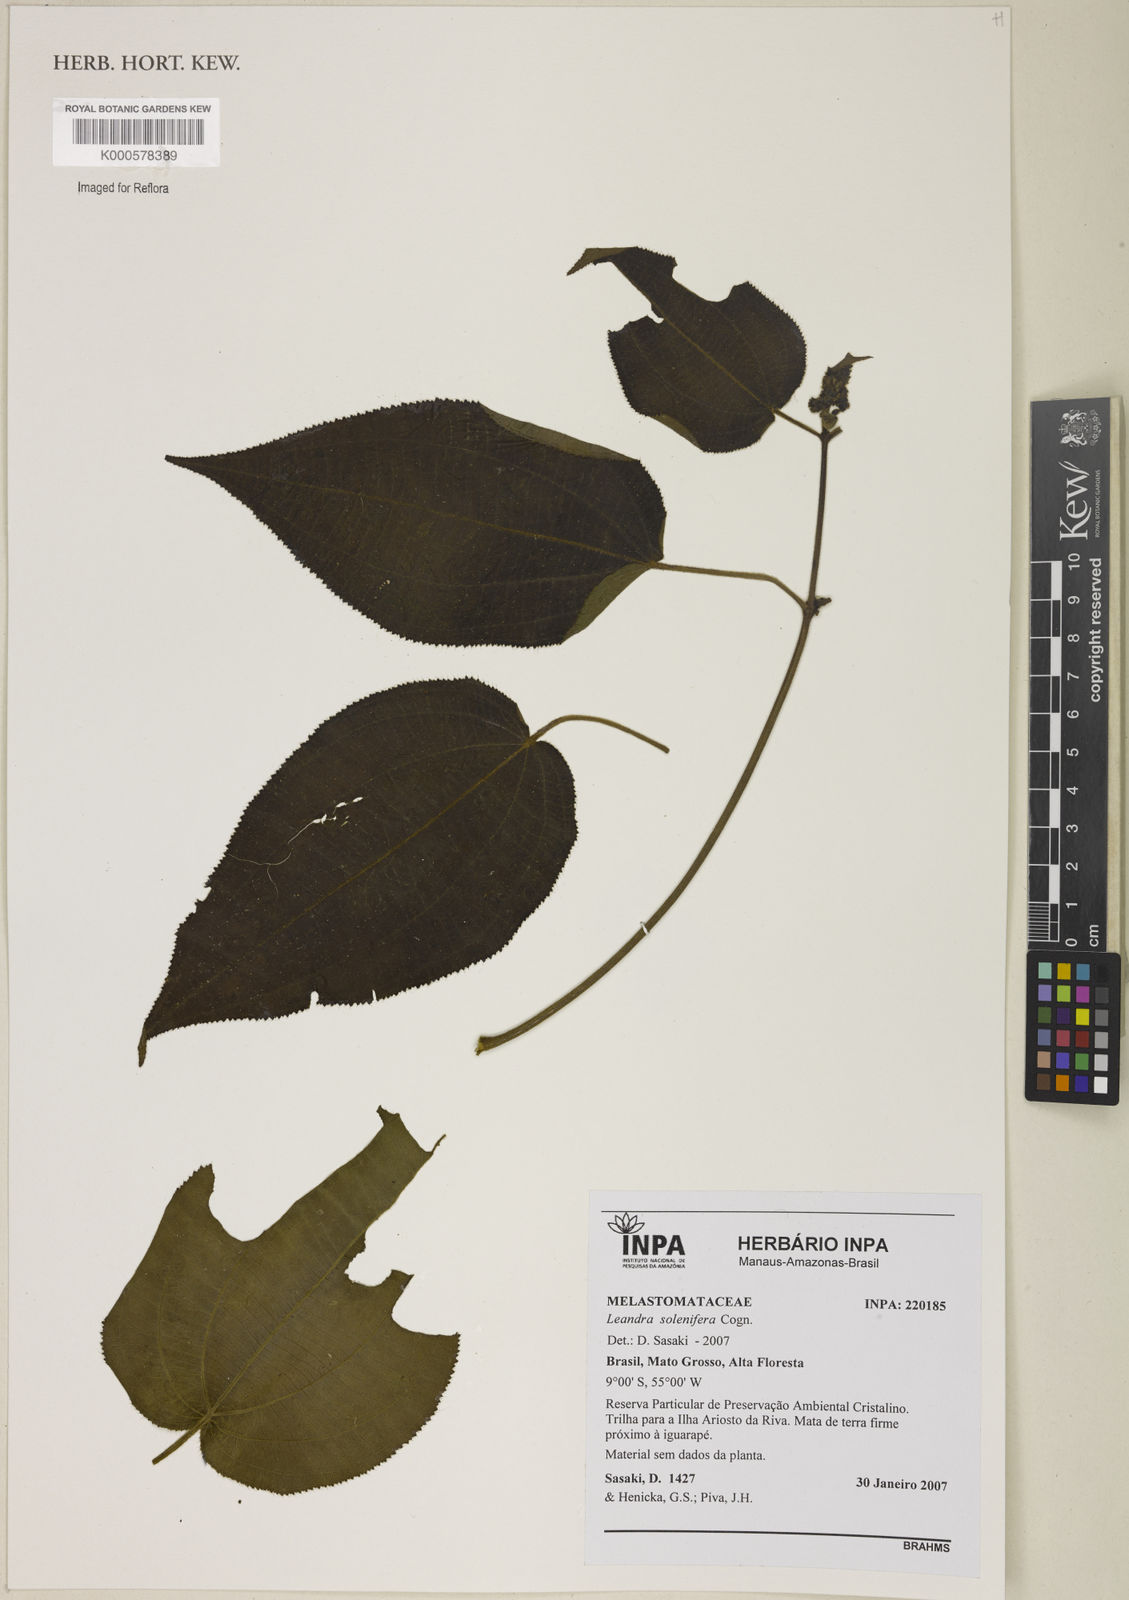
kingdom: Plantae
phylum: Tracheophyta
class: Magnoliopsida
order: Myrtales
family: Melastomataceae
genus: Miconia
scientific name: Miconia solenifera
